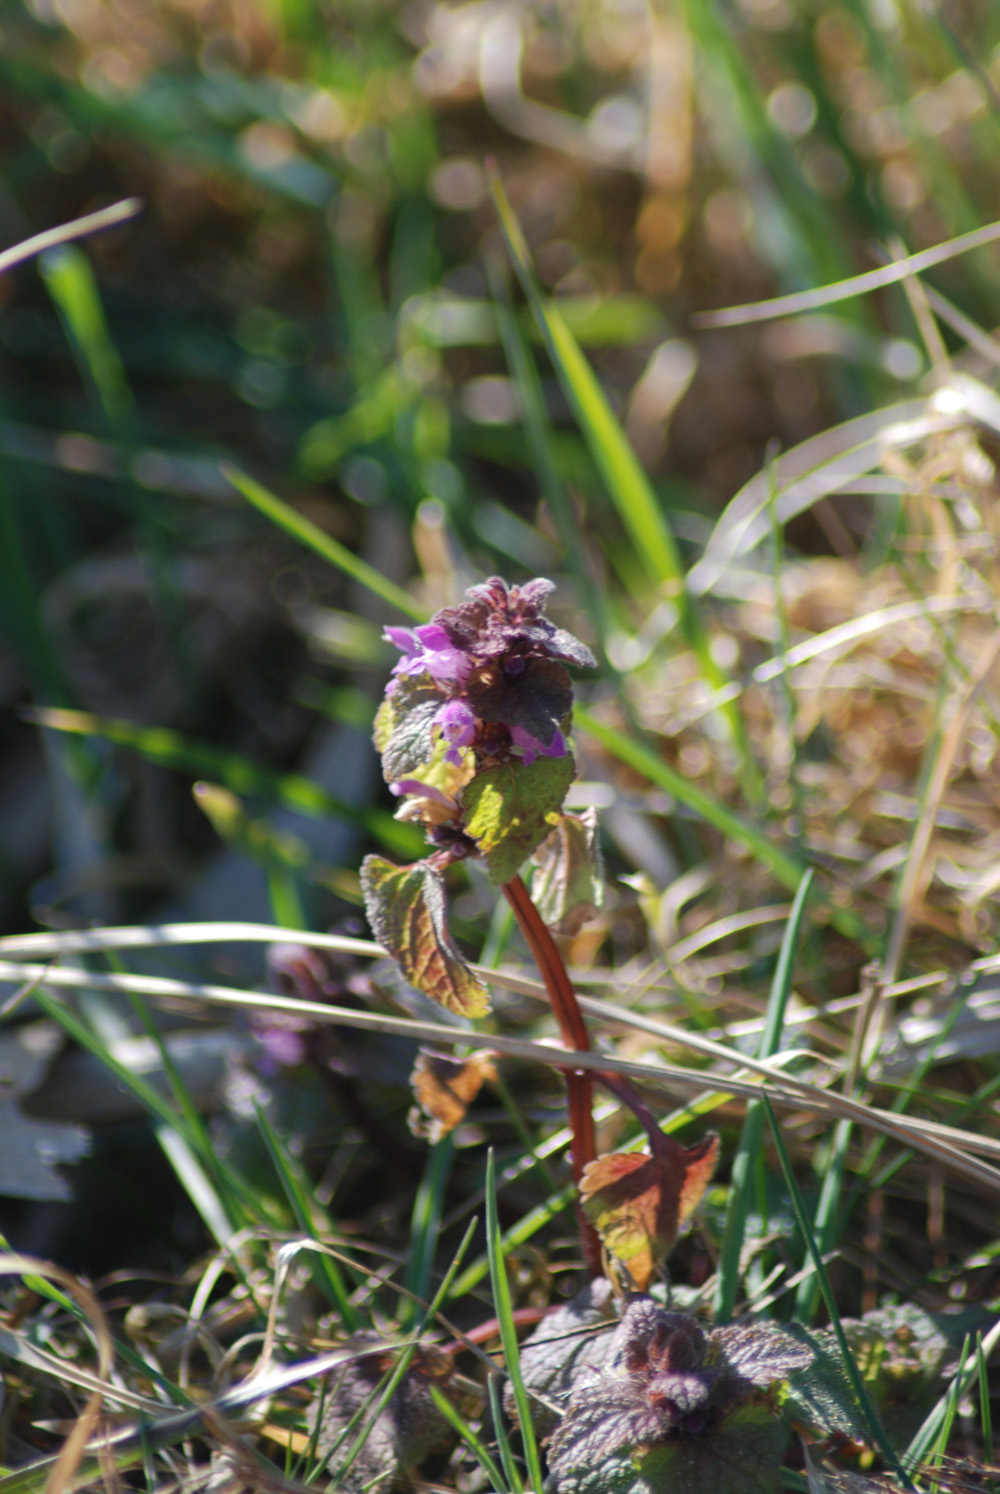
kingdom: Plantae
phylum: Tracheophyta
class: Magnoliopsida
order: Lamiales
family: Lamiaceae
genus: Lamium
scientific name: Lamium purpureum
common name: Red dead-nettle
